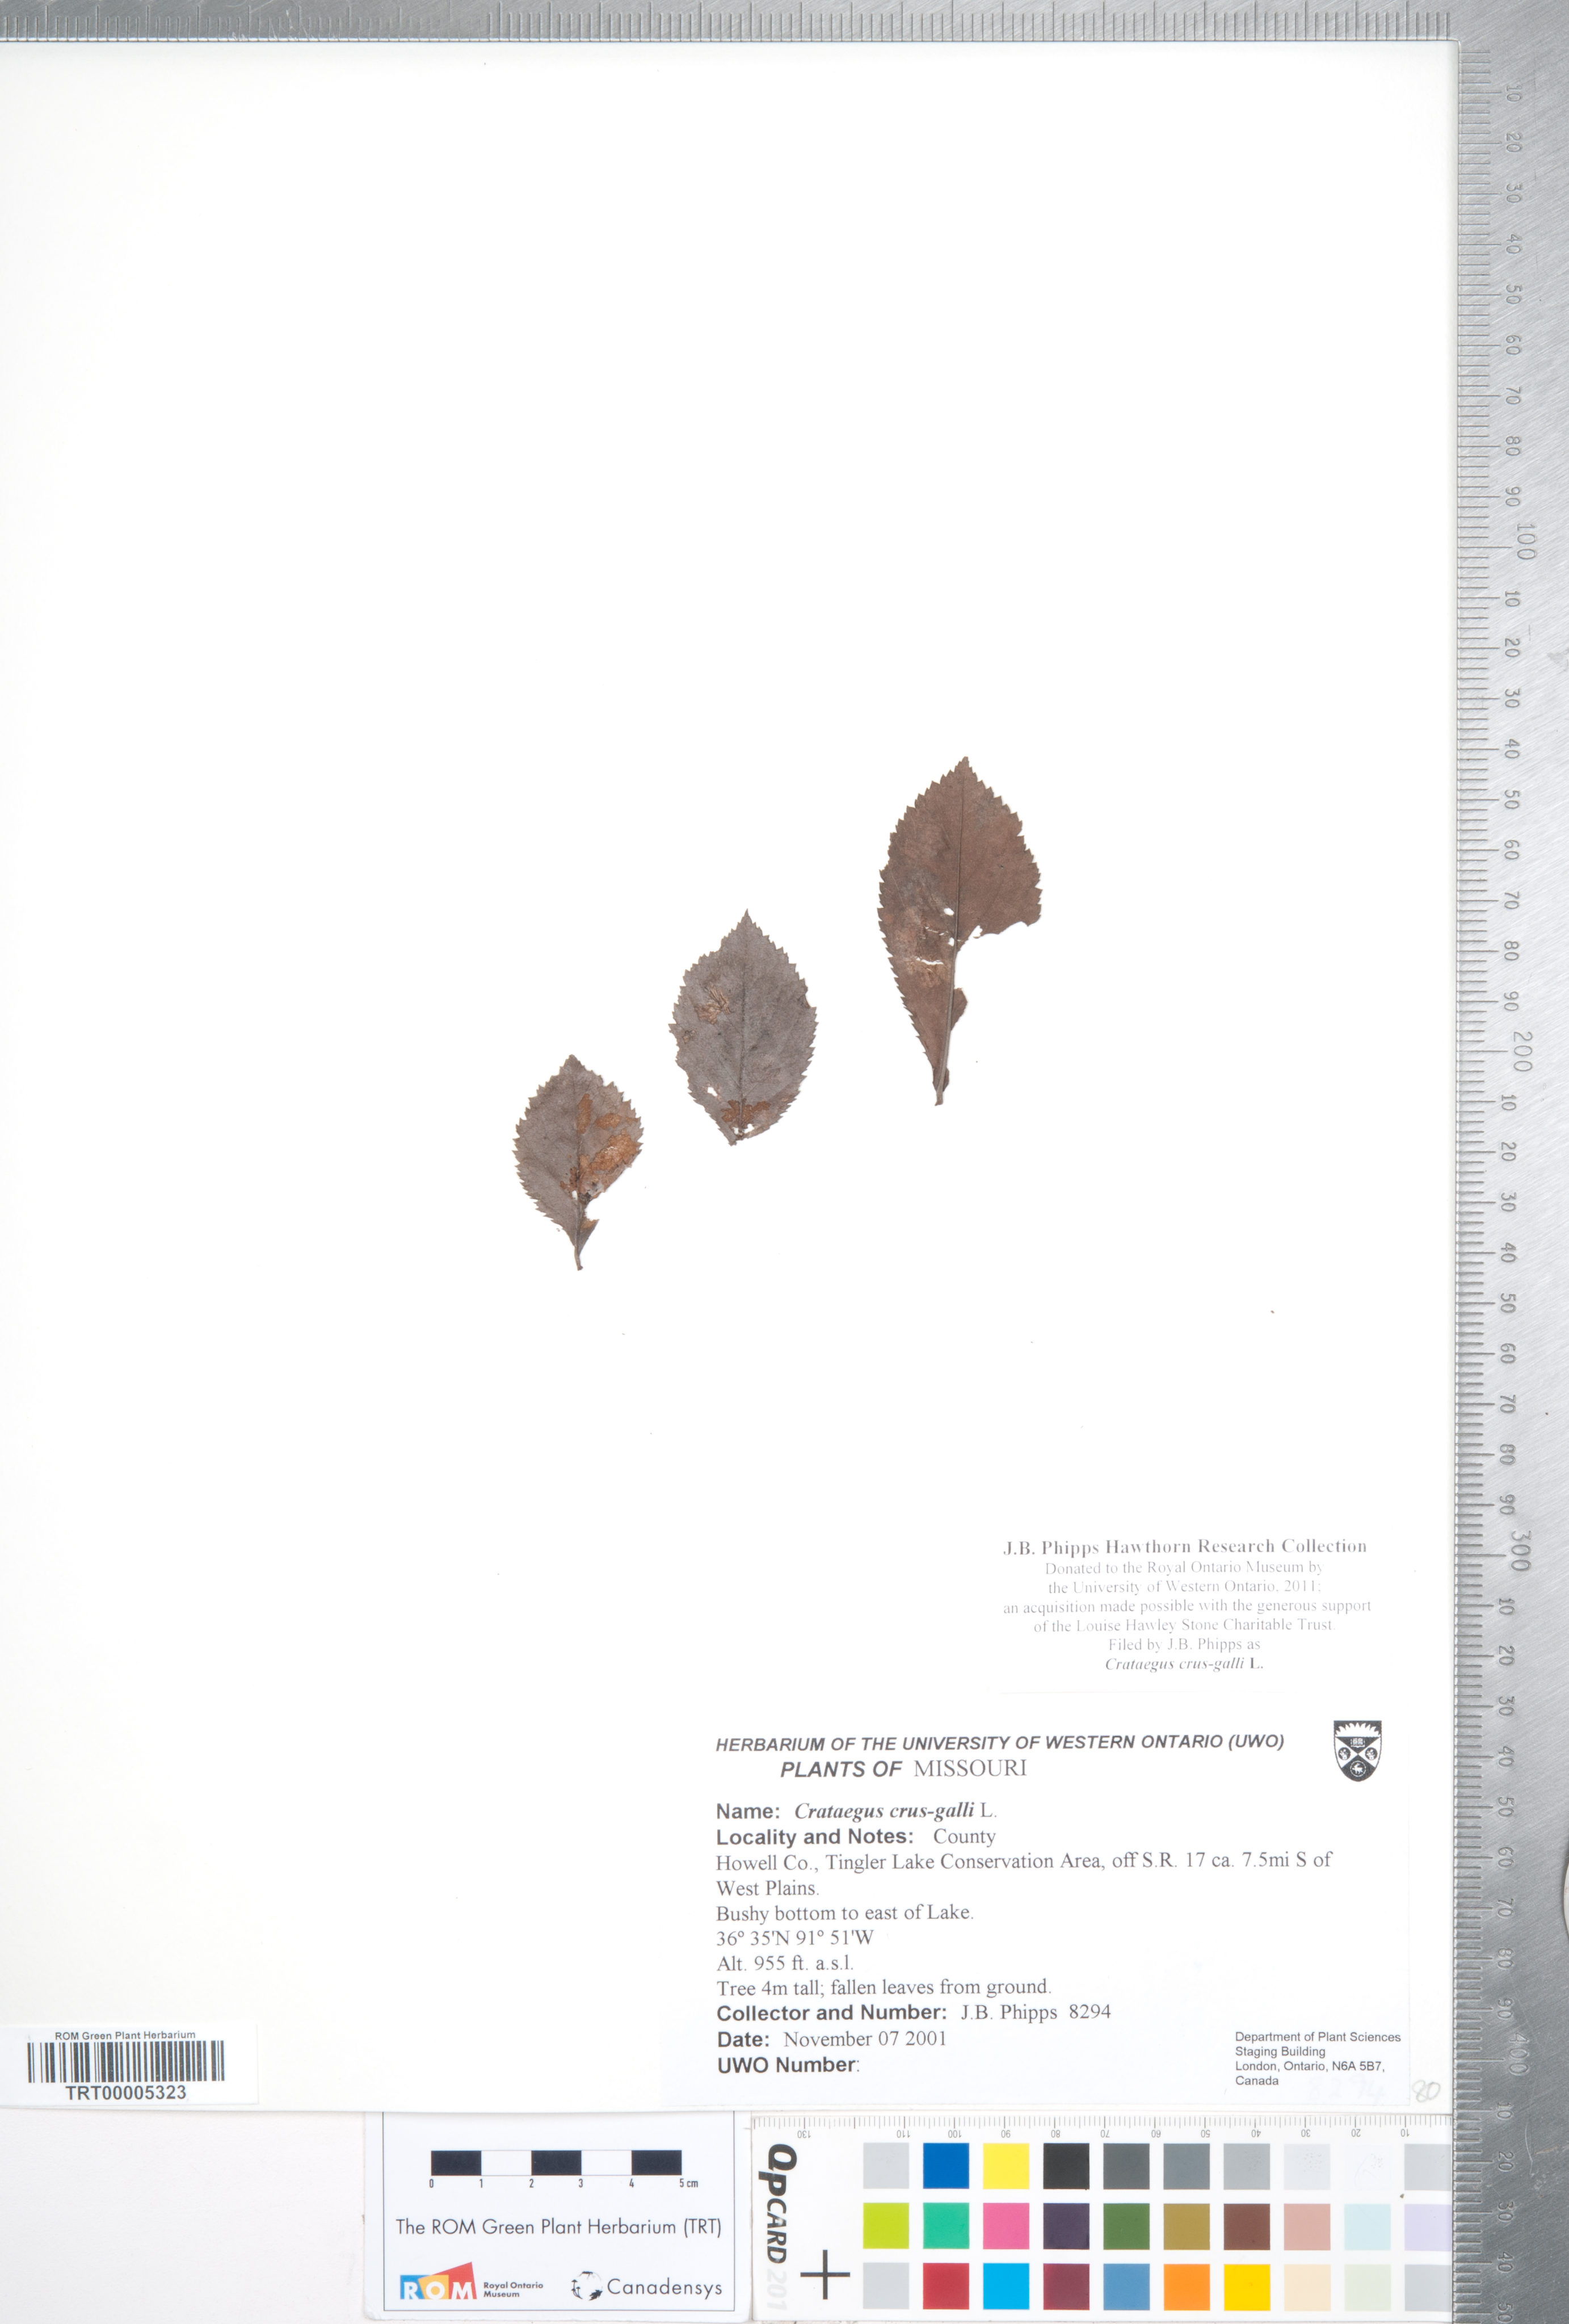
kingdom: Plantae
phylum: Tracheophyta
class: Magnoliopsida
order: Rosales
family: Rosaceae
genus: Crataegus
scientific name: Crataegus crus-galli
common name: Cockspurthorn
